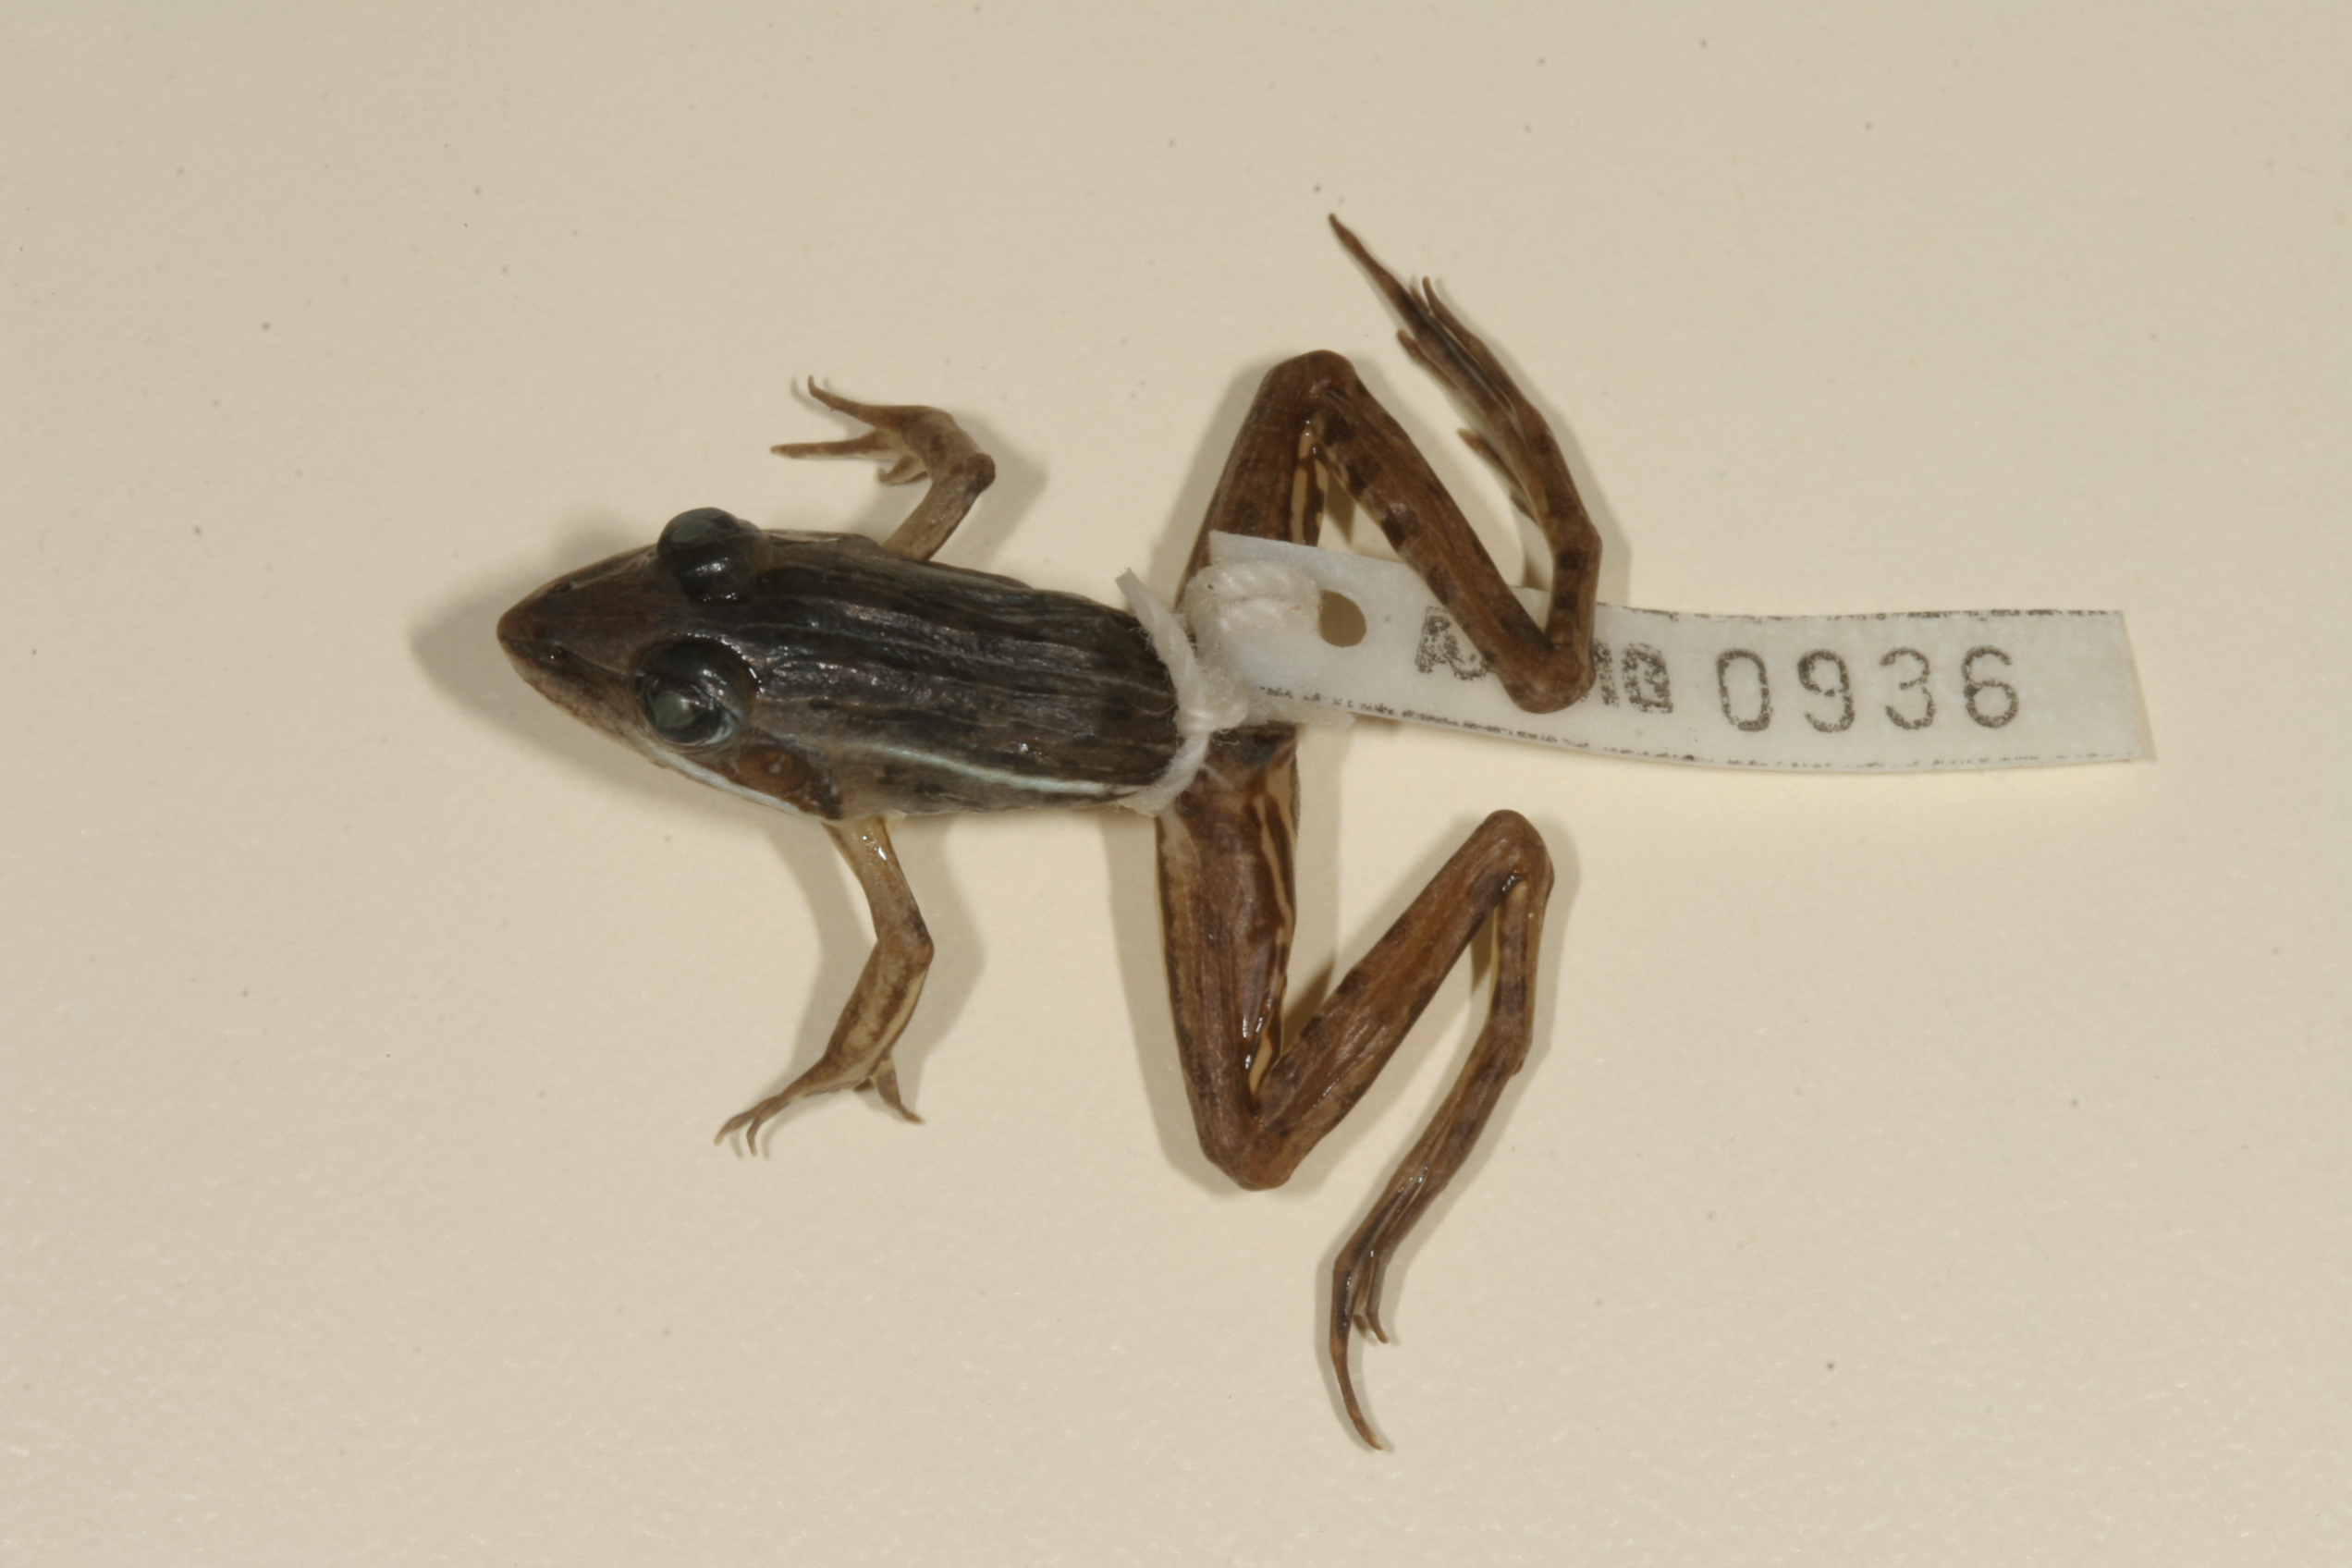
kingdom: Animalia
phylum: Chordata
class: Amphibia
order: Anura
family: Ptychadenidae
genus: Ptychadena
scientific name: Ptychadena subpunctata
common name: Bocage's grassland frog
